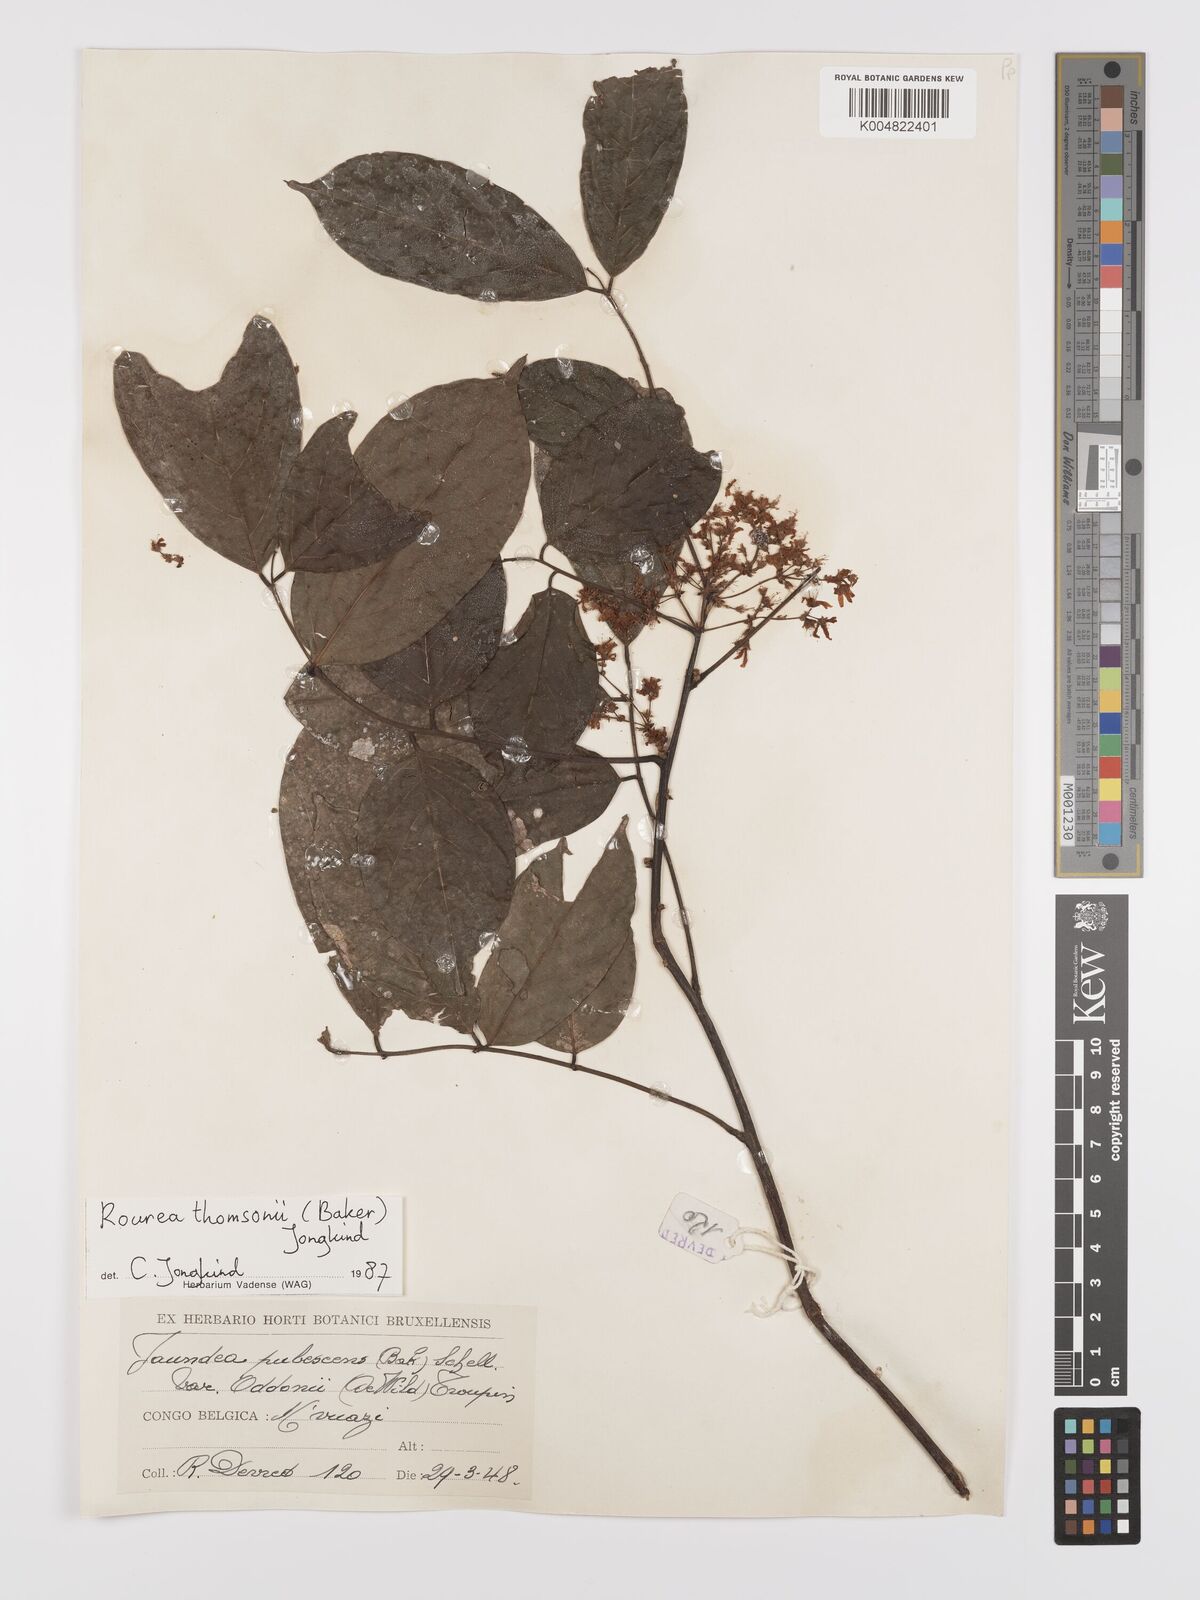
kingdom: Plantae
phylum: Tracheophyta
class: Magnoliopsida
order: Oxalidales
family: Connaraceae
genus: Rourea
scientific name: Rourea pubescens
